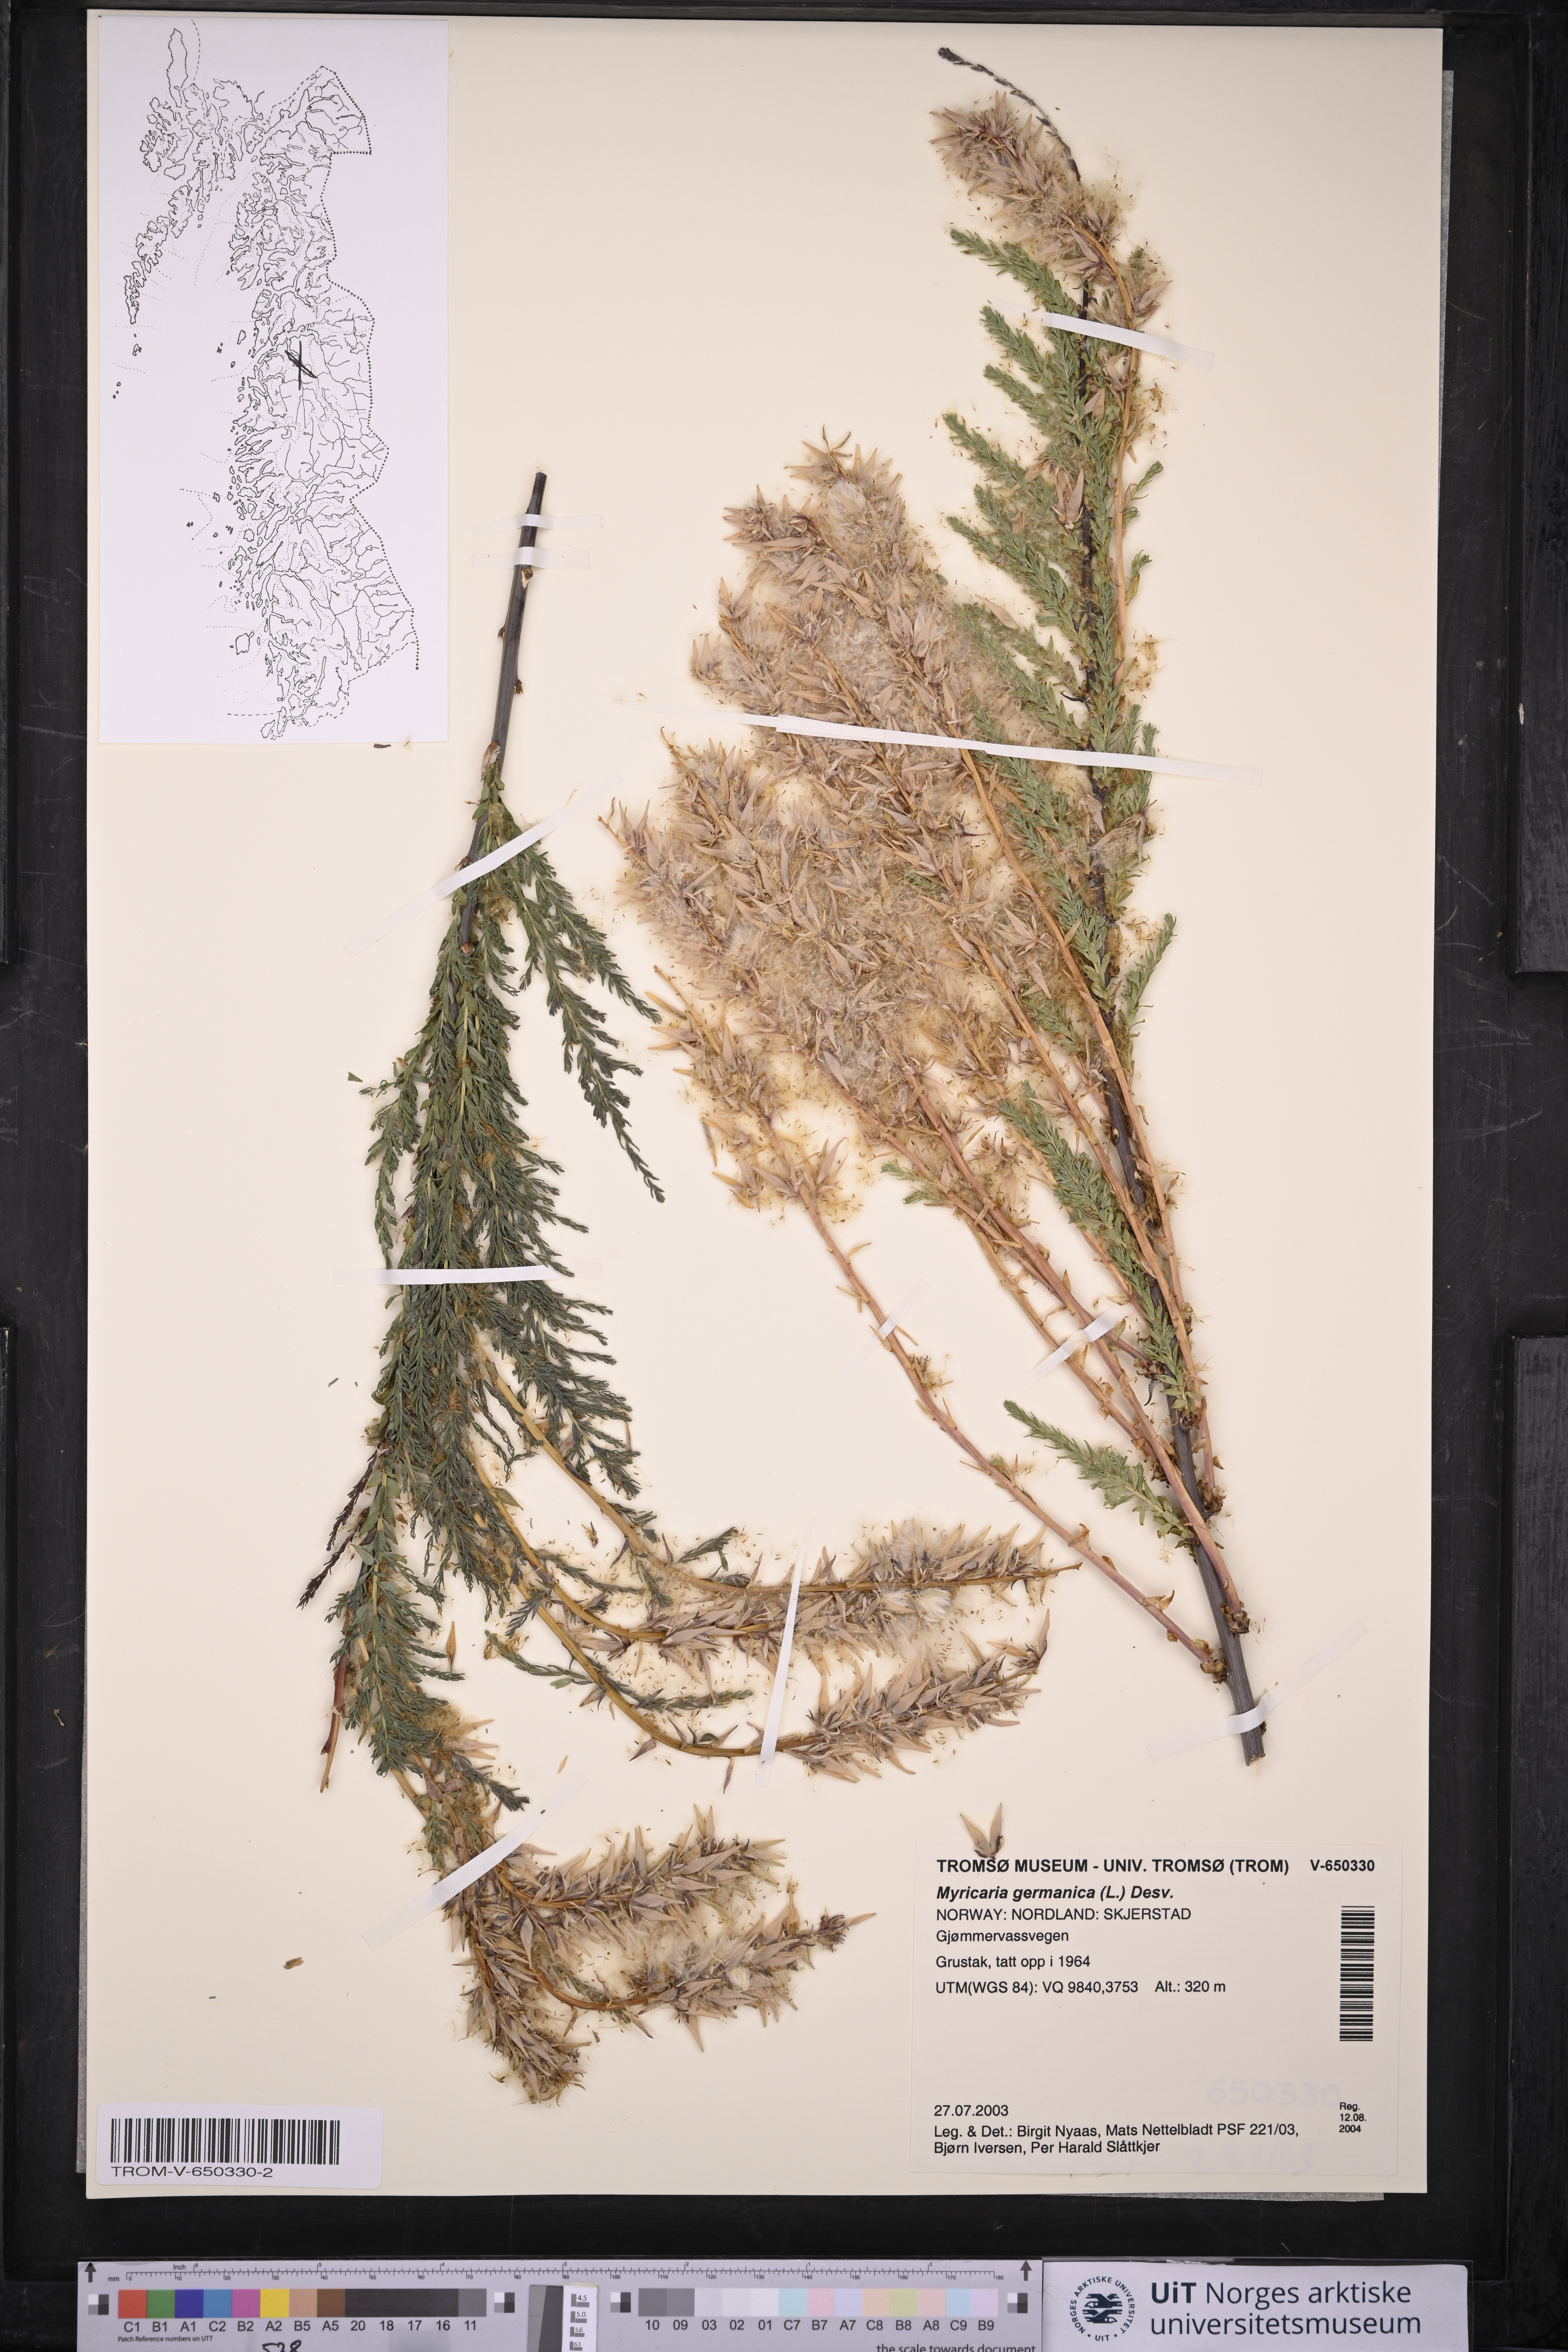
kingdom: Plantae
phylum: Tracheophyta
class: Magnoliopsida
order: Caryophyllales
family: Tamaricaceae
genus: Myricaria
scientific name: Myricaria germanica
